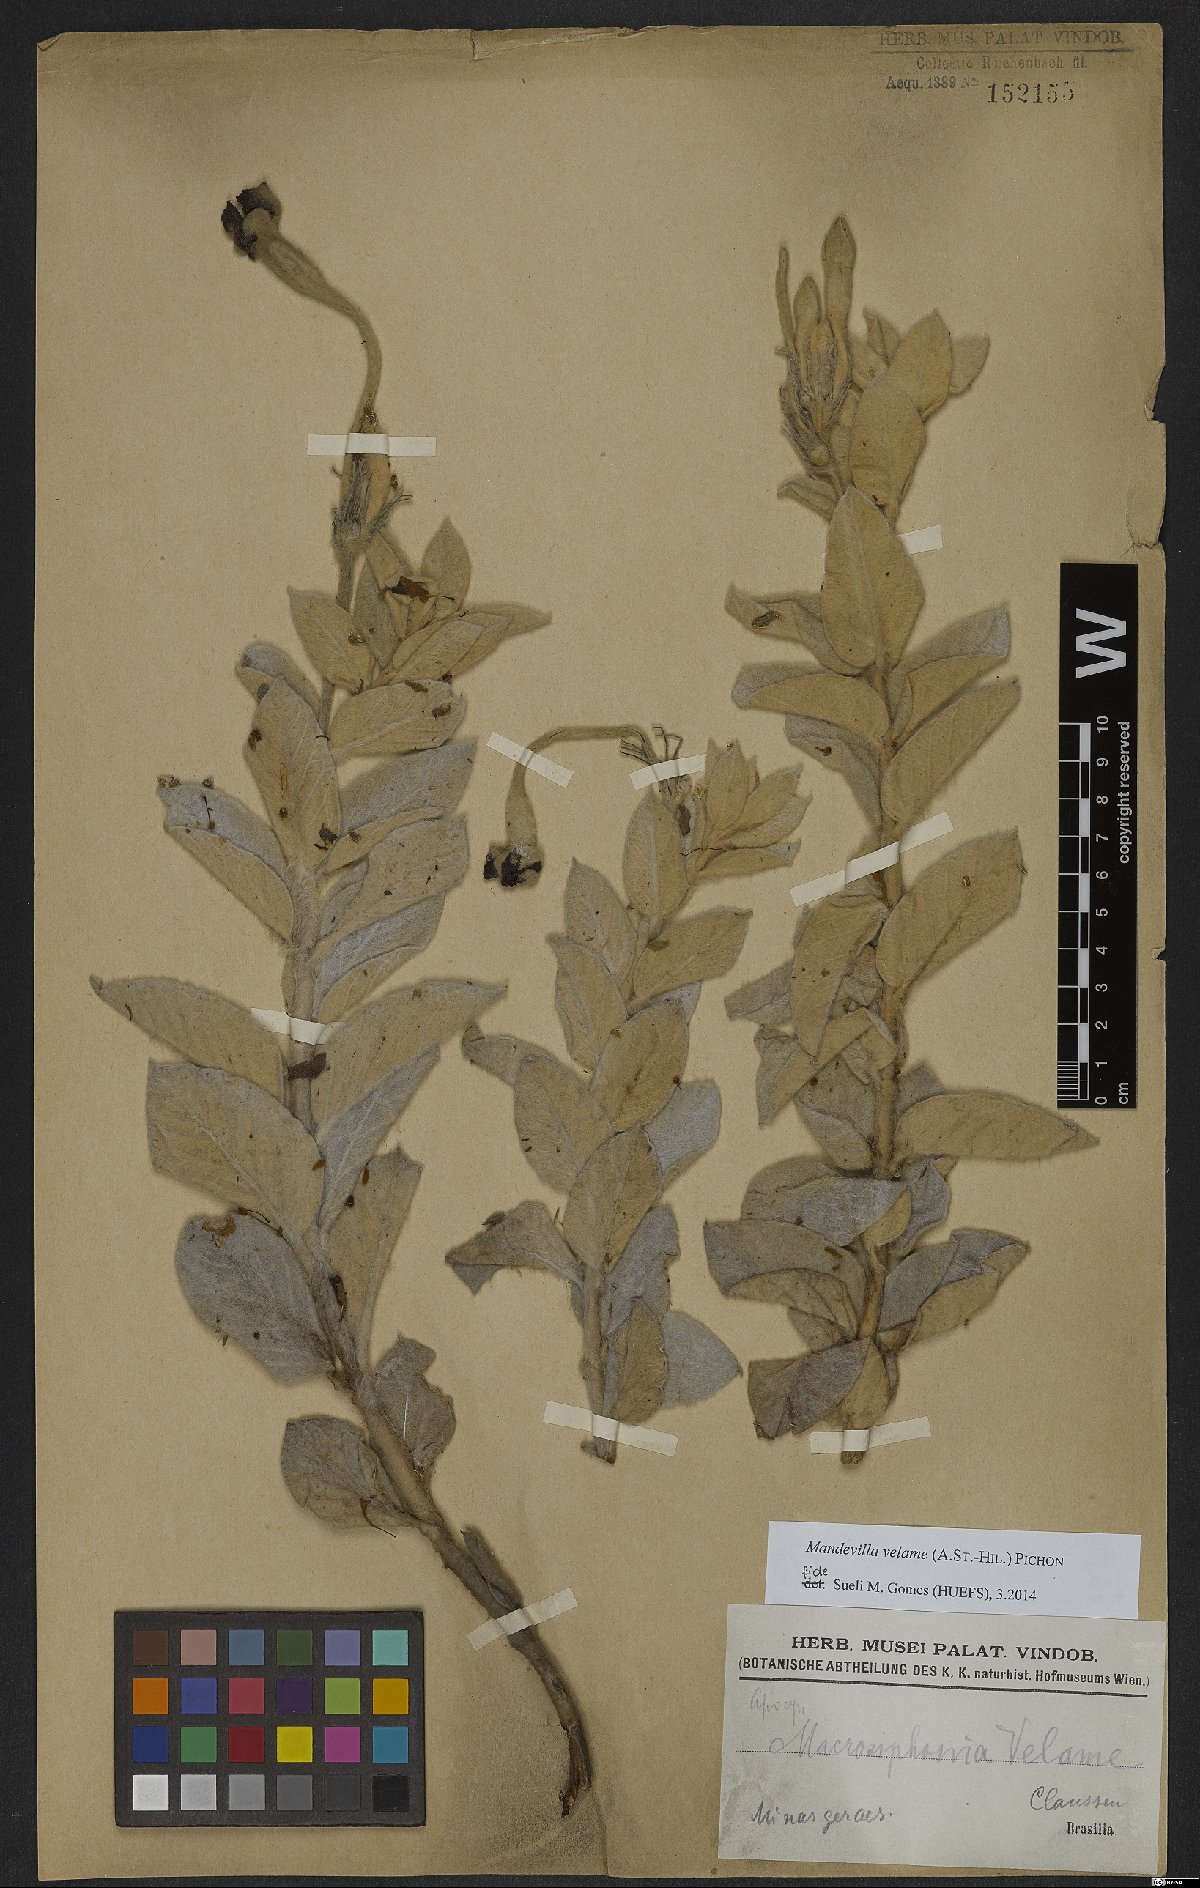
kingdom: Plantae
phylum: Tracheophyta
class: Magnoliopsida
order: Gentianales
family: Apocynaceae
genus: Mandevilla
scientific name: Mandevilla velame
